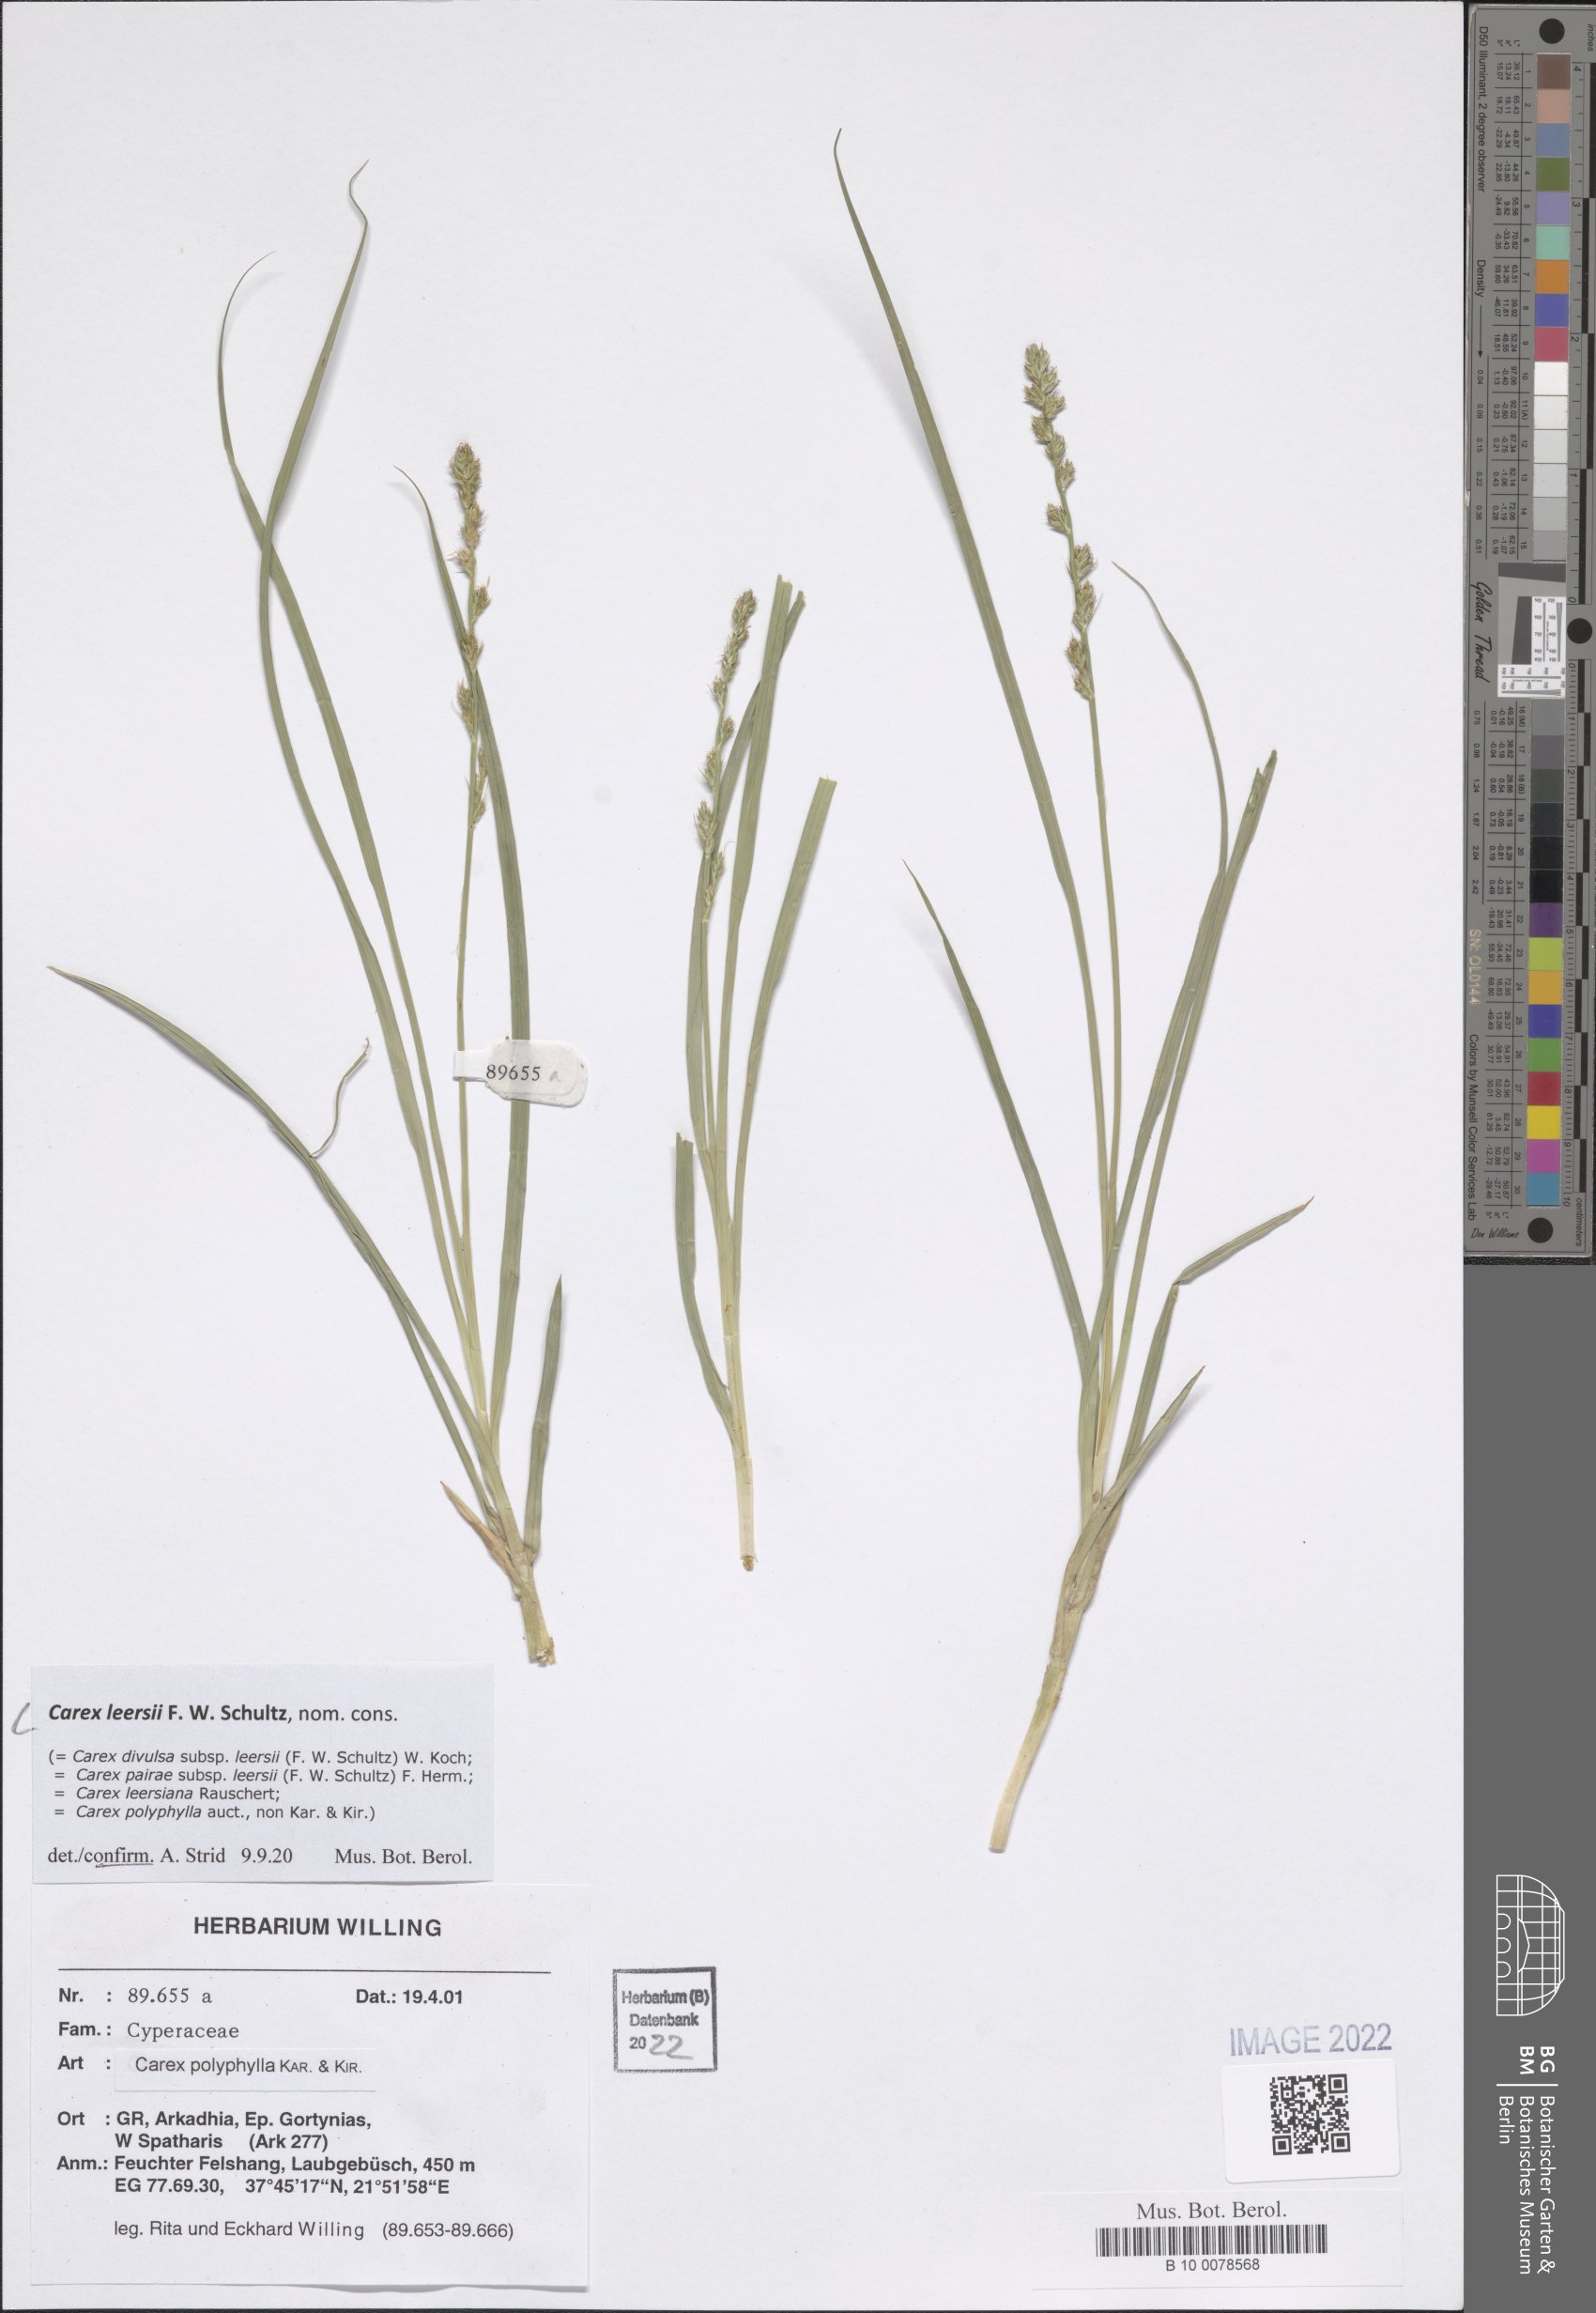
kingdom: Plantae
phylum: Tracheophyta
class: Liliopsida
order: Poales
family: Cyperaceae
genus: Carex
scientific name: Carex leersii
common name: Leers' sedge
